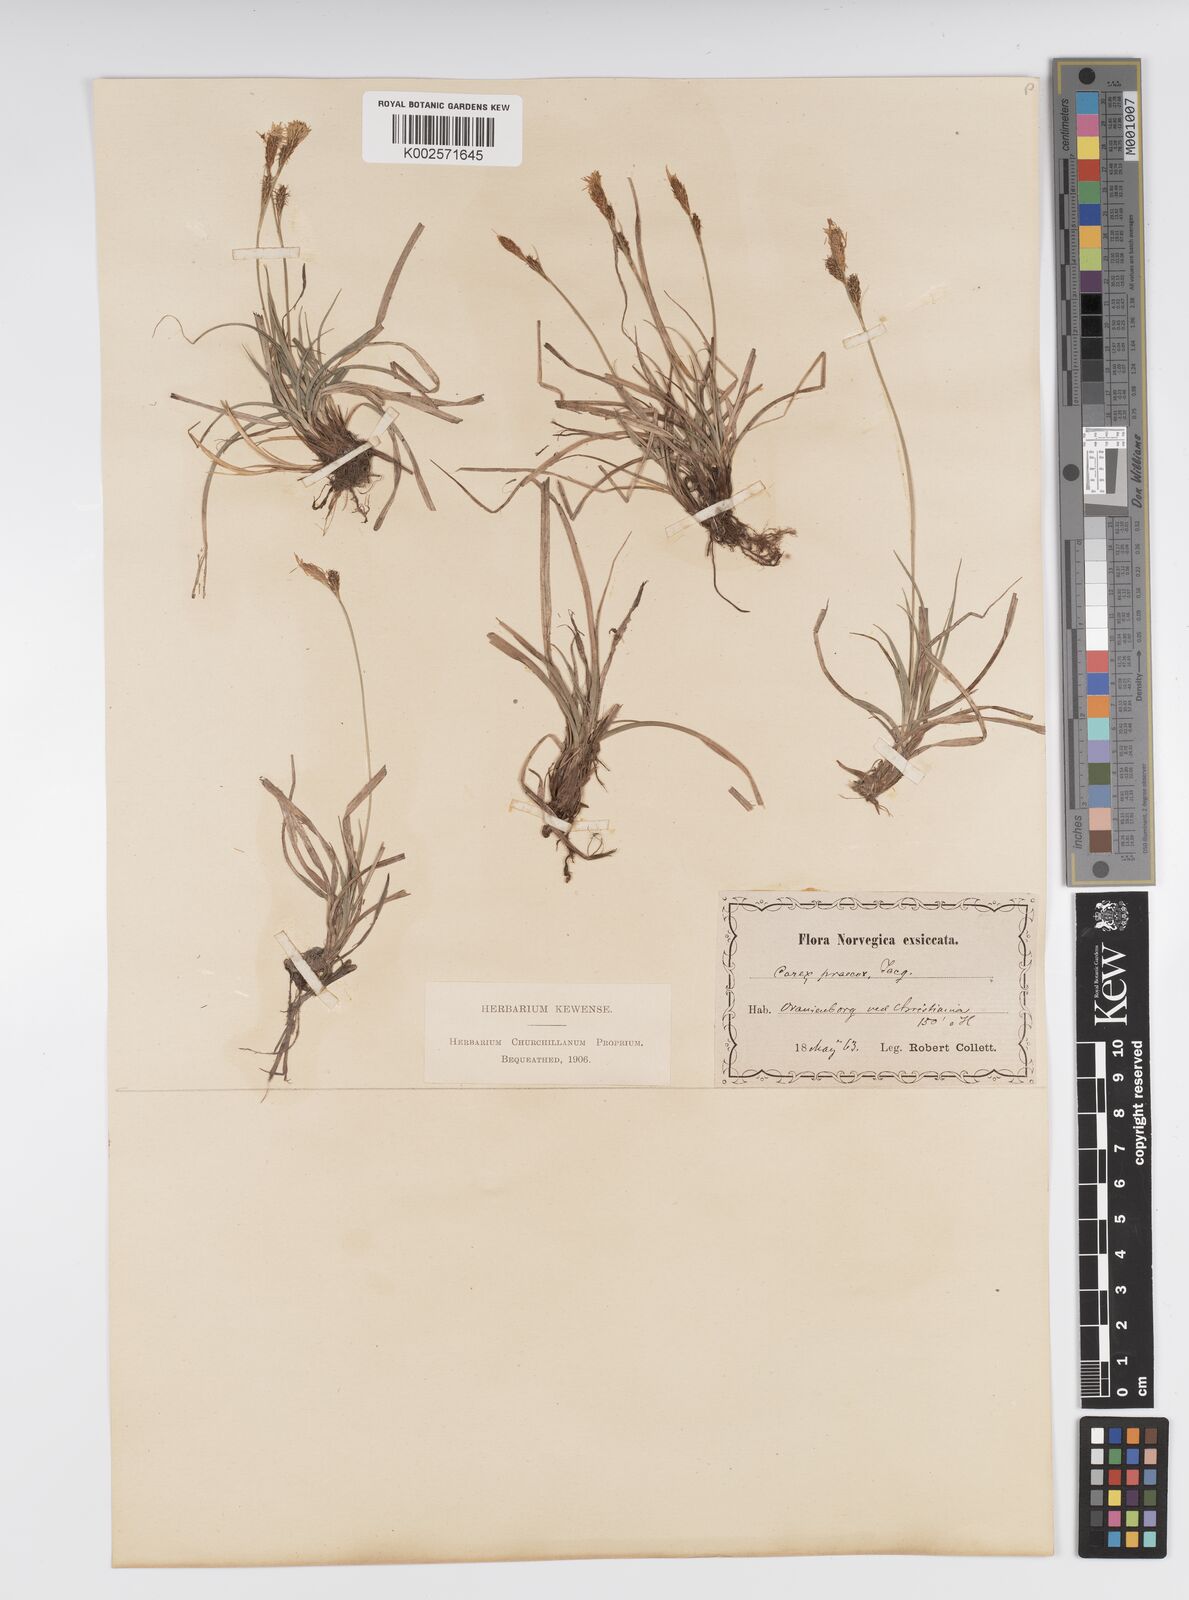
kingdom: Plantae
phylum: Tracheophyta
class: Liliopsida
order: Poales
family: Cyperaceae
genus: Carex
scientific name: Carex caryophyllea
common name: Spring sedge
